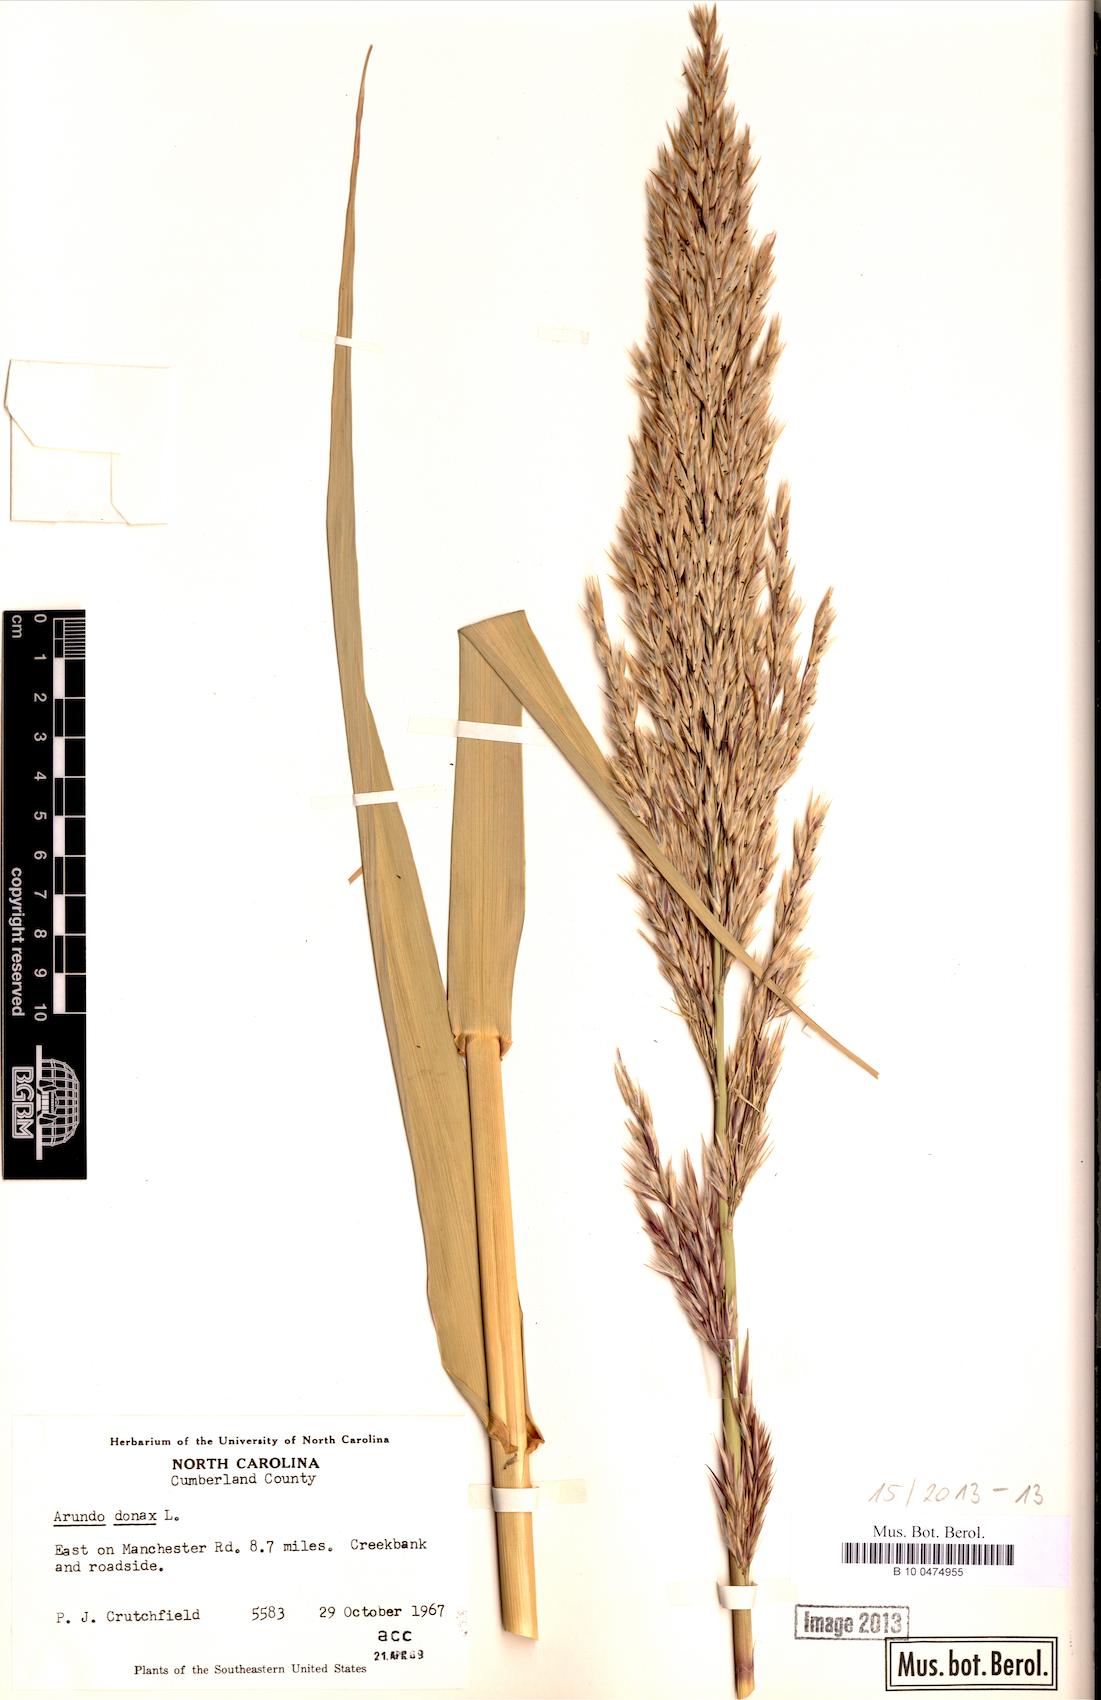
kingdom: Plantae
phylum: Tracheophyta
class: Liliopsida
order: Poales
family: Poaceae
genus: Arundo
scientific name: Arundo donax
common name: Giant reed
